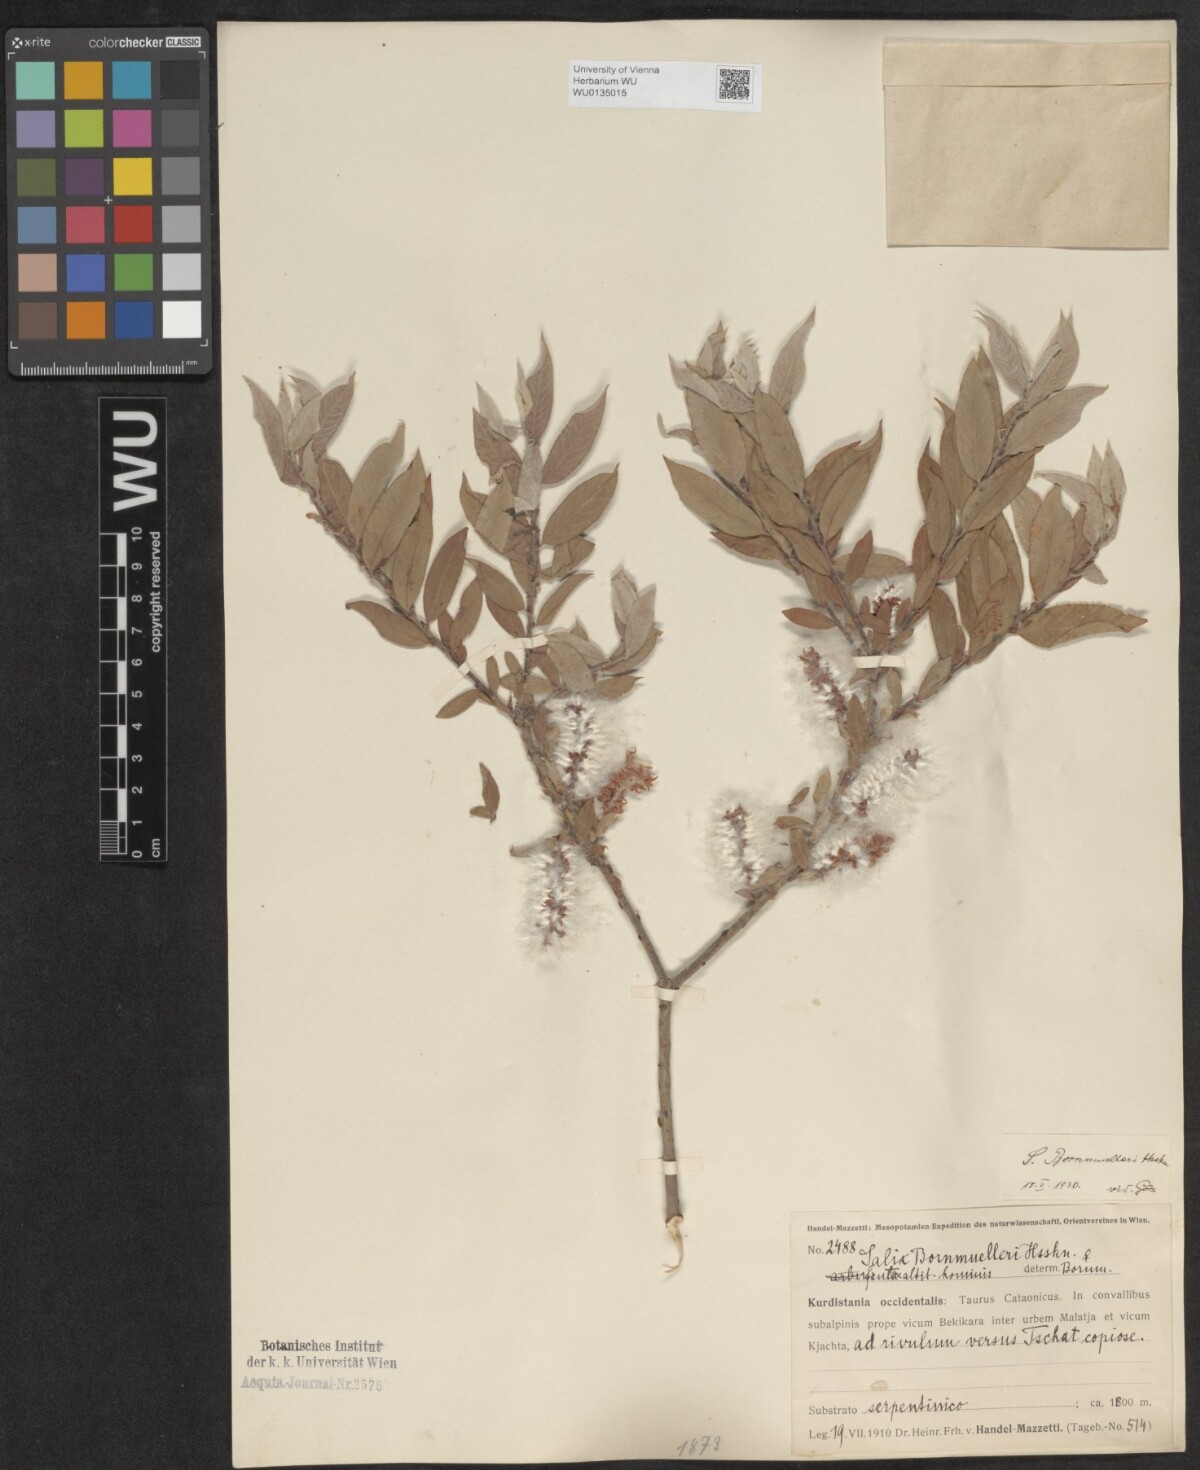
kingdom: Plantae
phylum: Tracheophyta
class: Magnoliopsida
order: Malpighiales
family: Salicaceae
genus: Salix
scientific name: Salix triandra
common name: Almond willow
